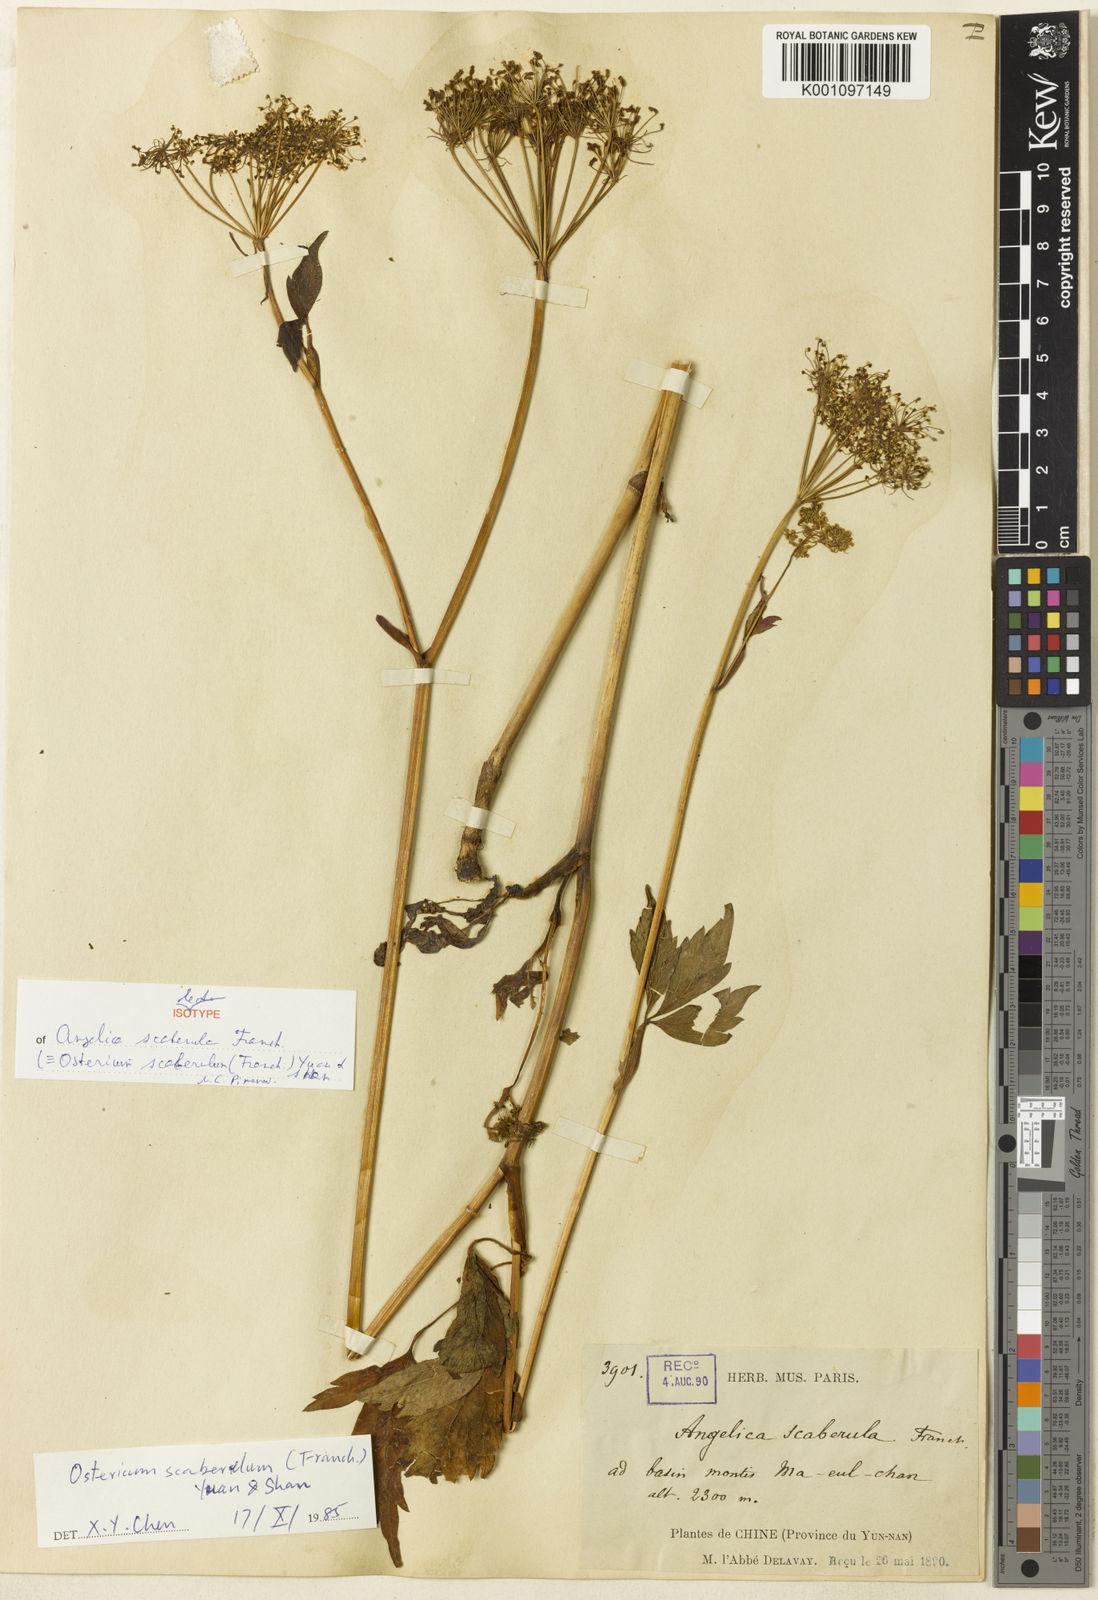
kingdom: Plantae
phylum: Tracheophyta
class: Magnoliopsida
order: Apiales
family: Apiaceae
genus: Ostericum
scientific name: Ostericum scaberulum
